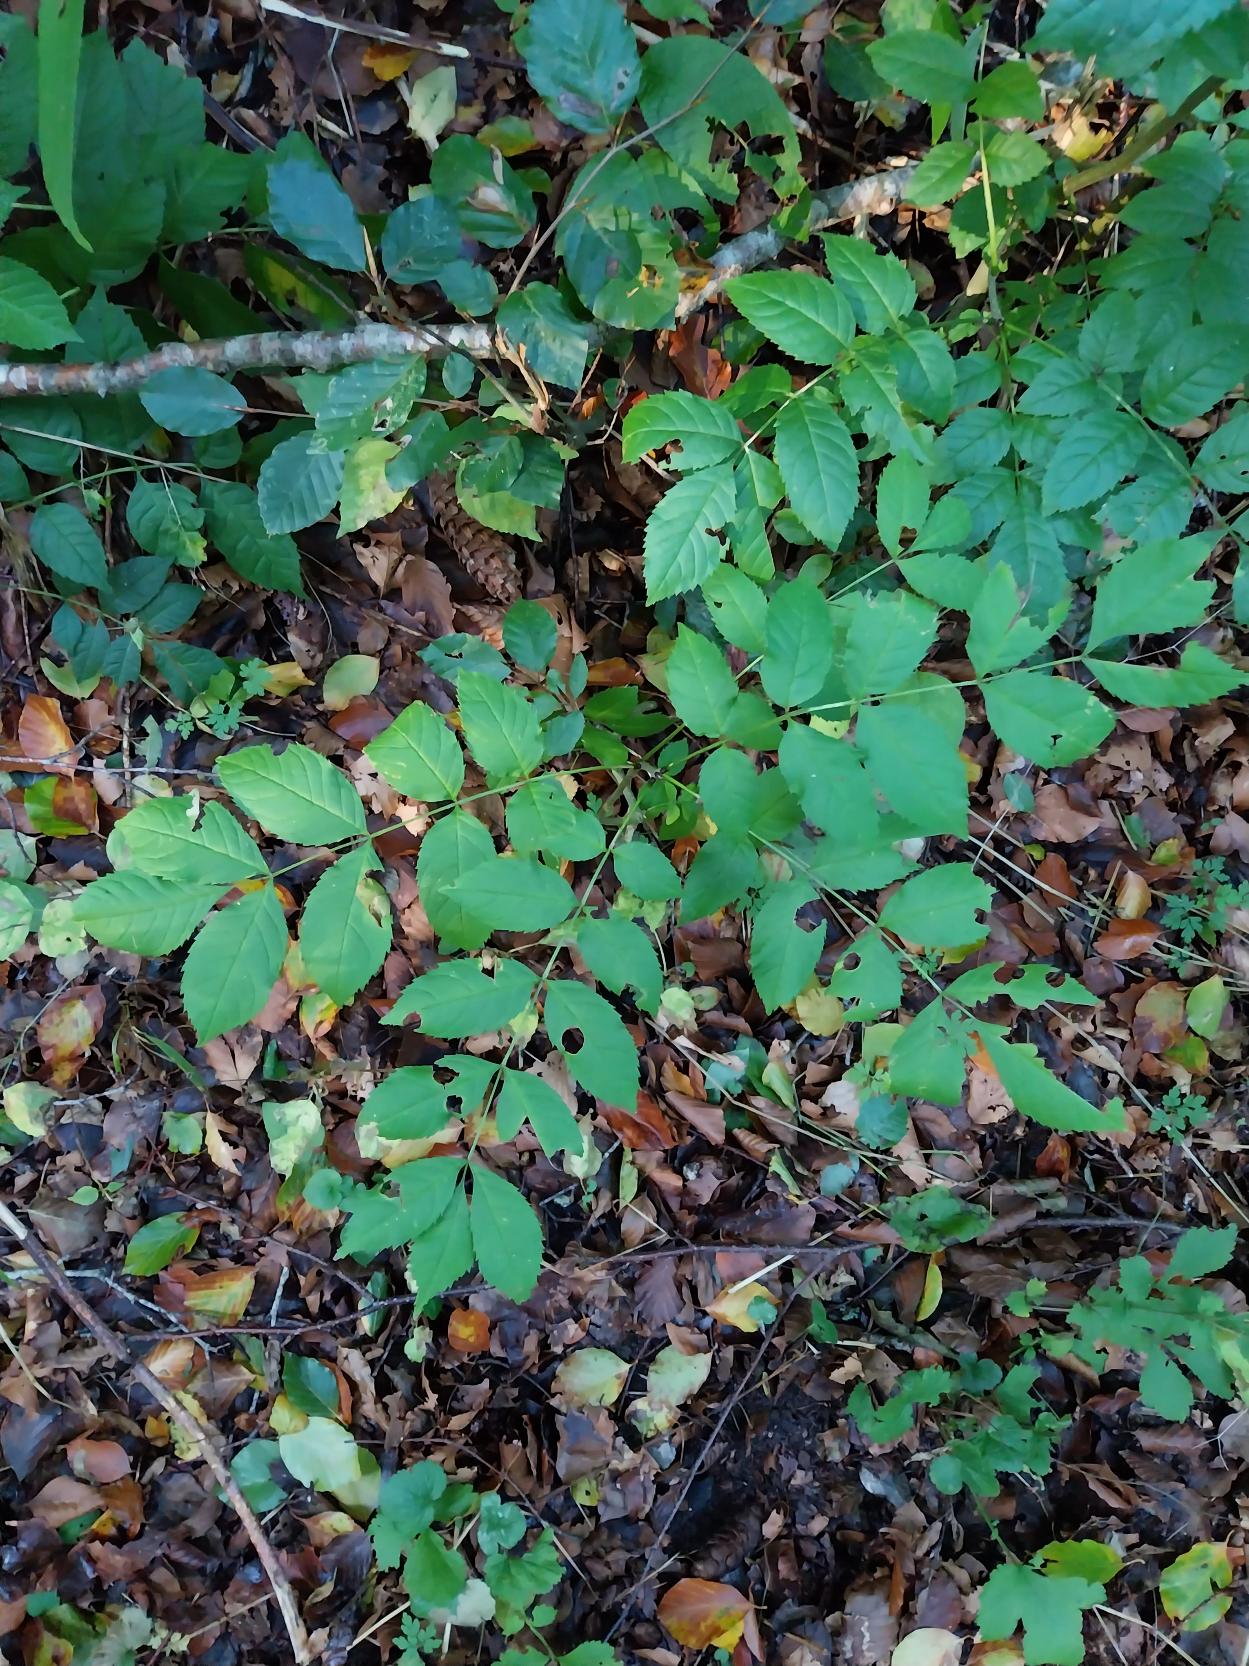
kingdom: Plantae
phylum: Tracheophyta
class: Magnoliopsida
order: Lamiales
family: Oleaceae
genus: Fraxinus
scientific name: Fraxinus excelsior
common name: Ask
